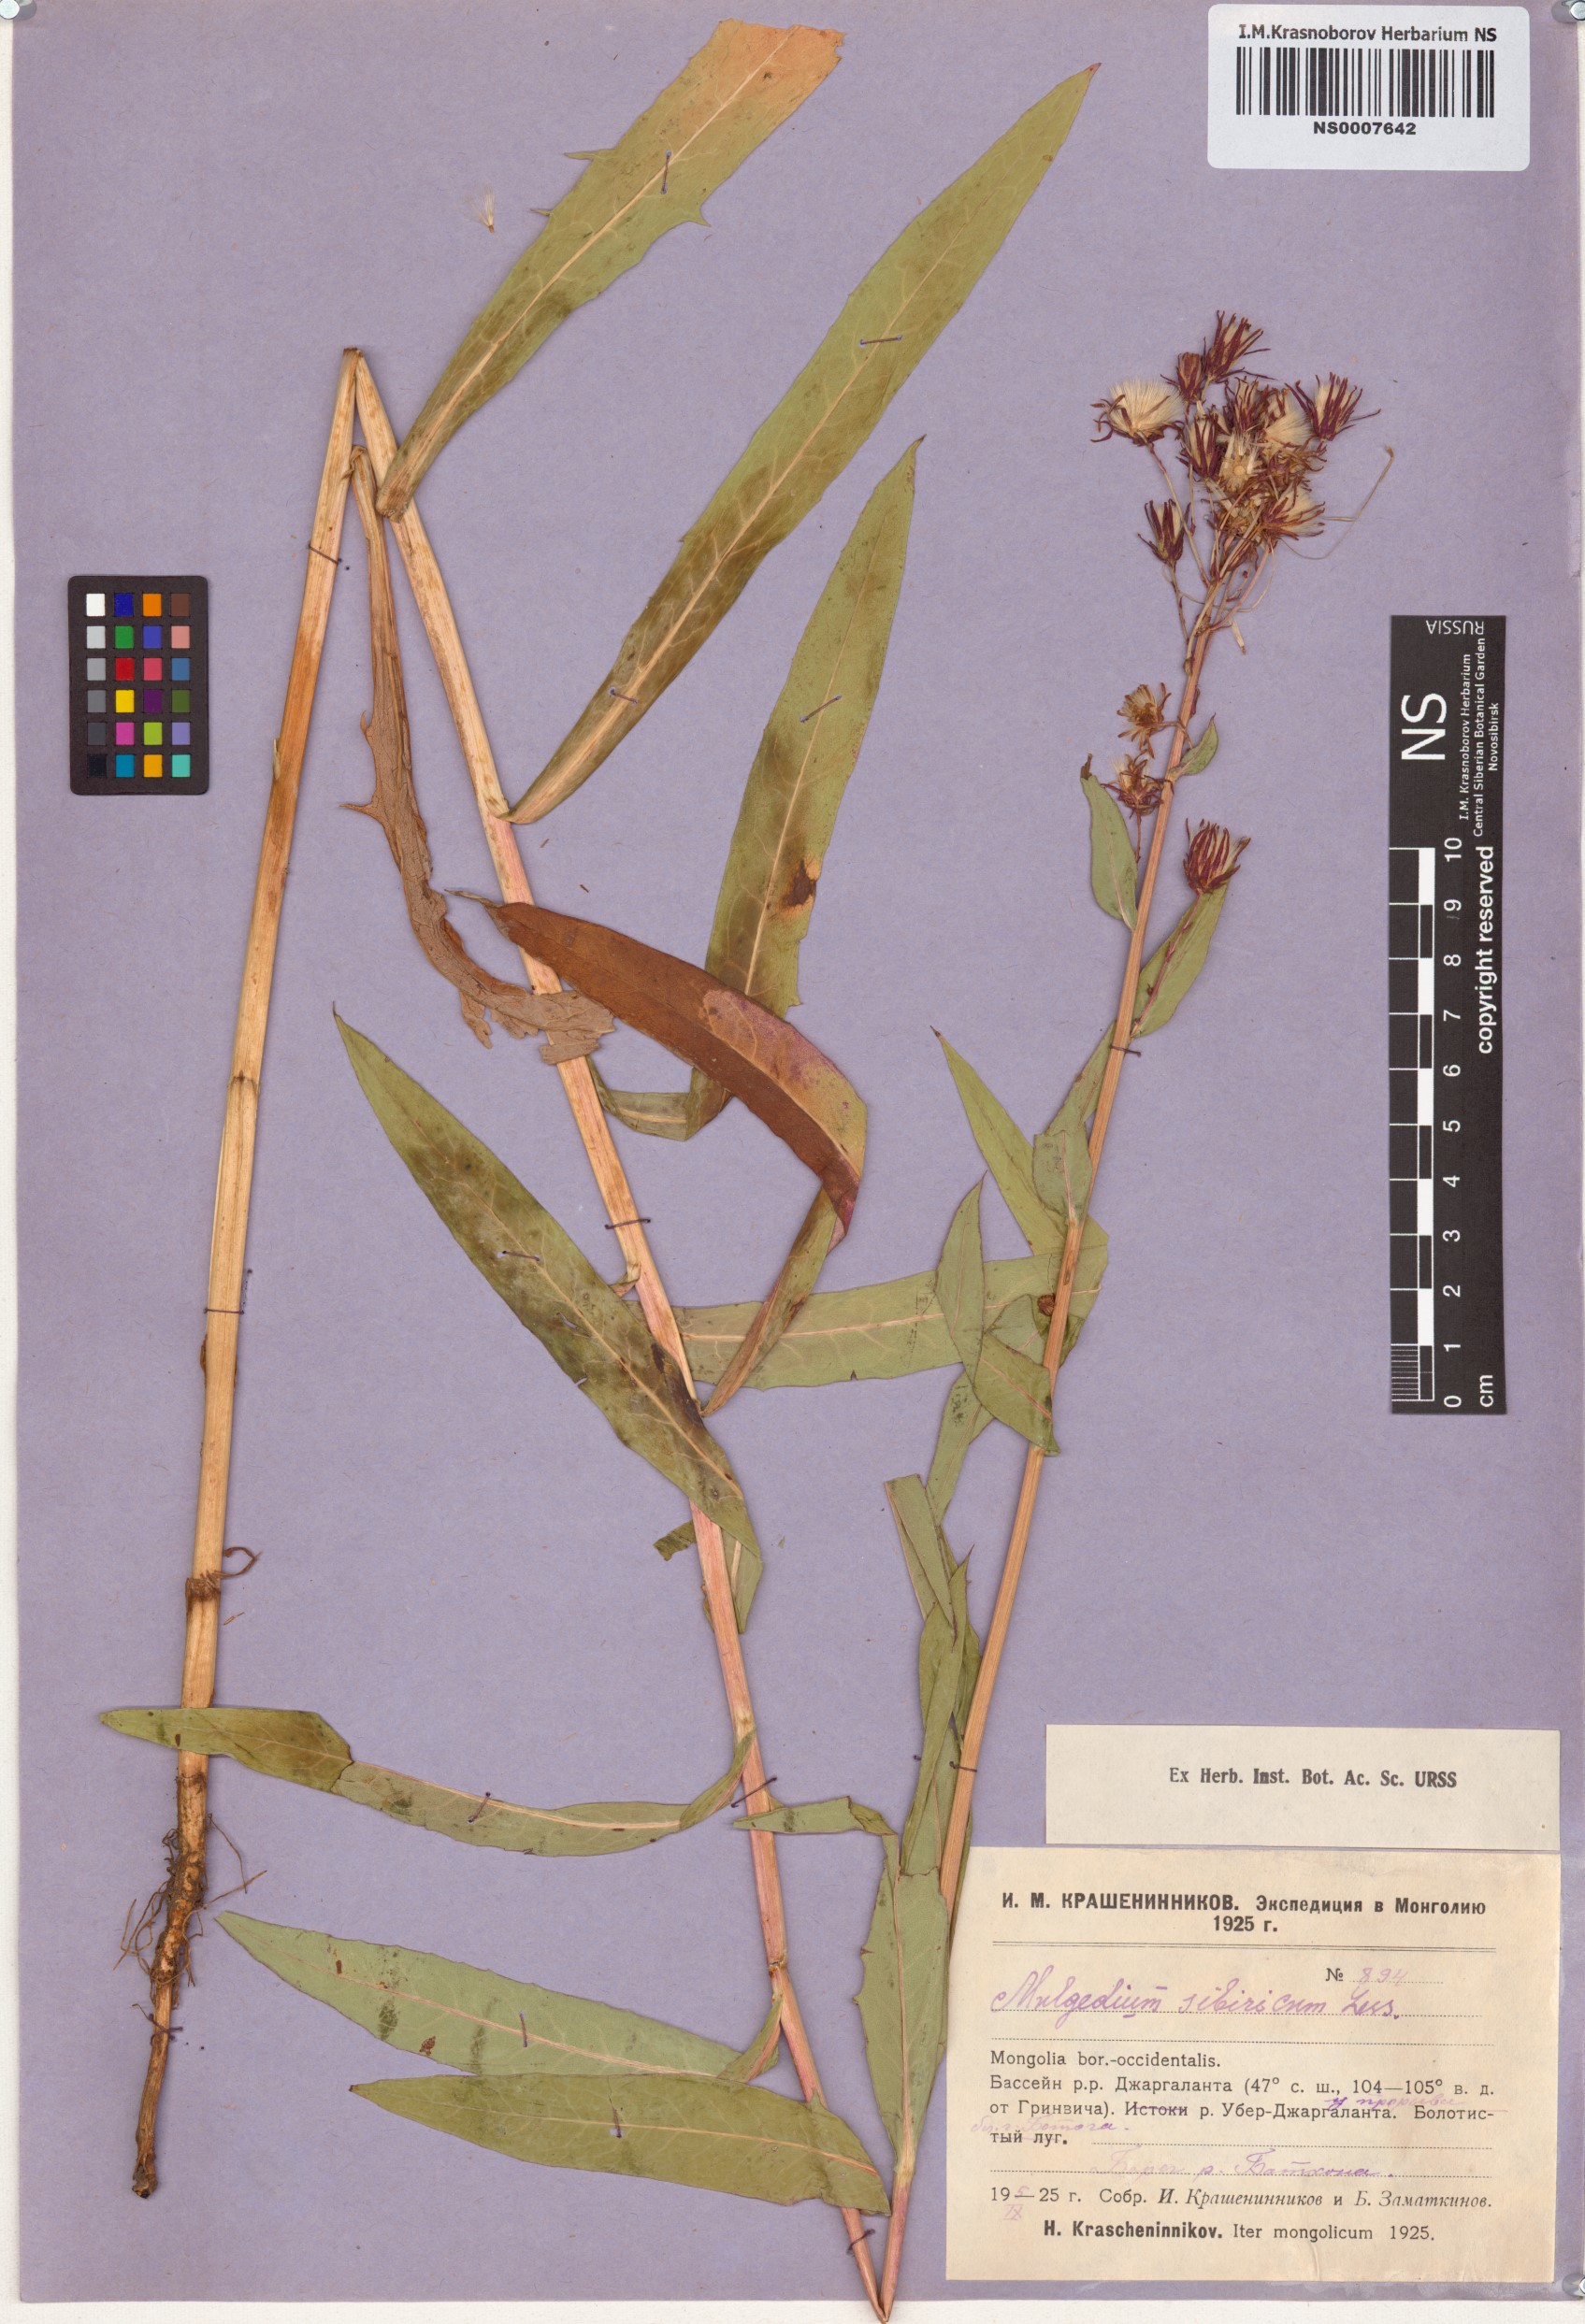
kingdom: Plantae
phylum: Tracheophyta
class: Magnoliopsida
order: Asterales
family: Asteraceae
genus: Lactuca
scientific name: Lactuca sibirica
